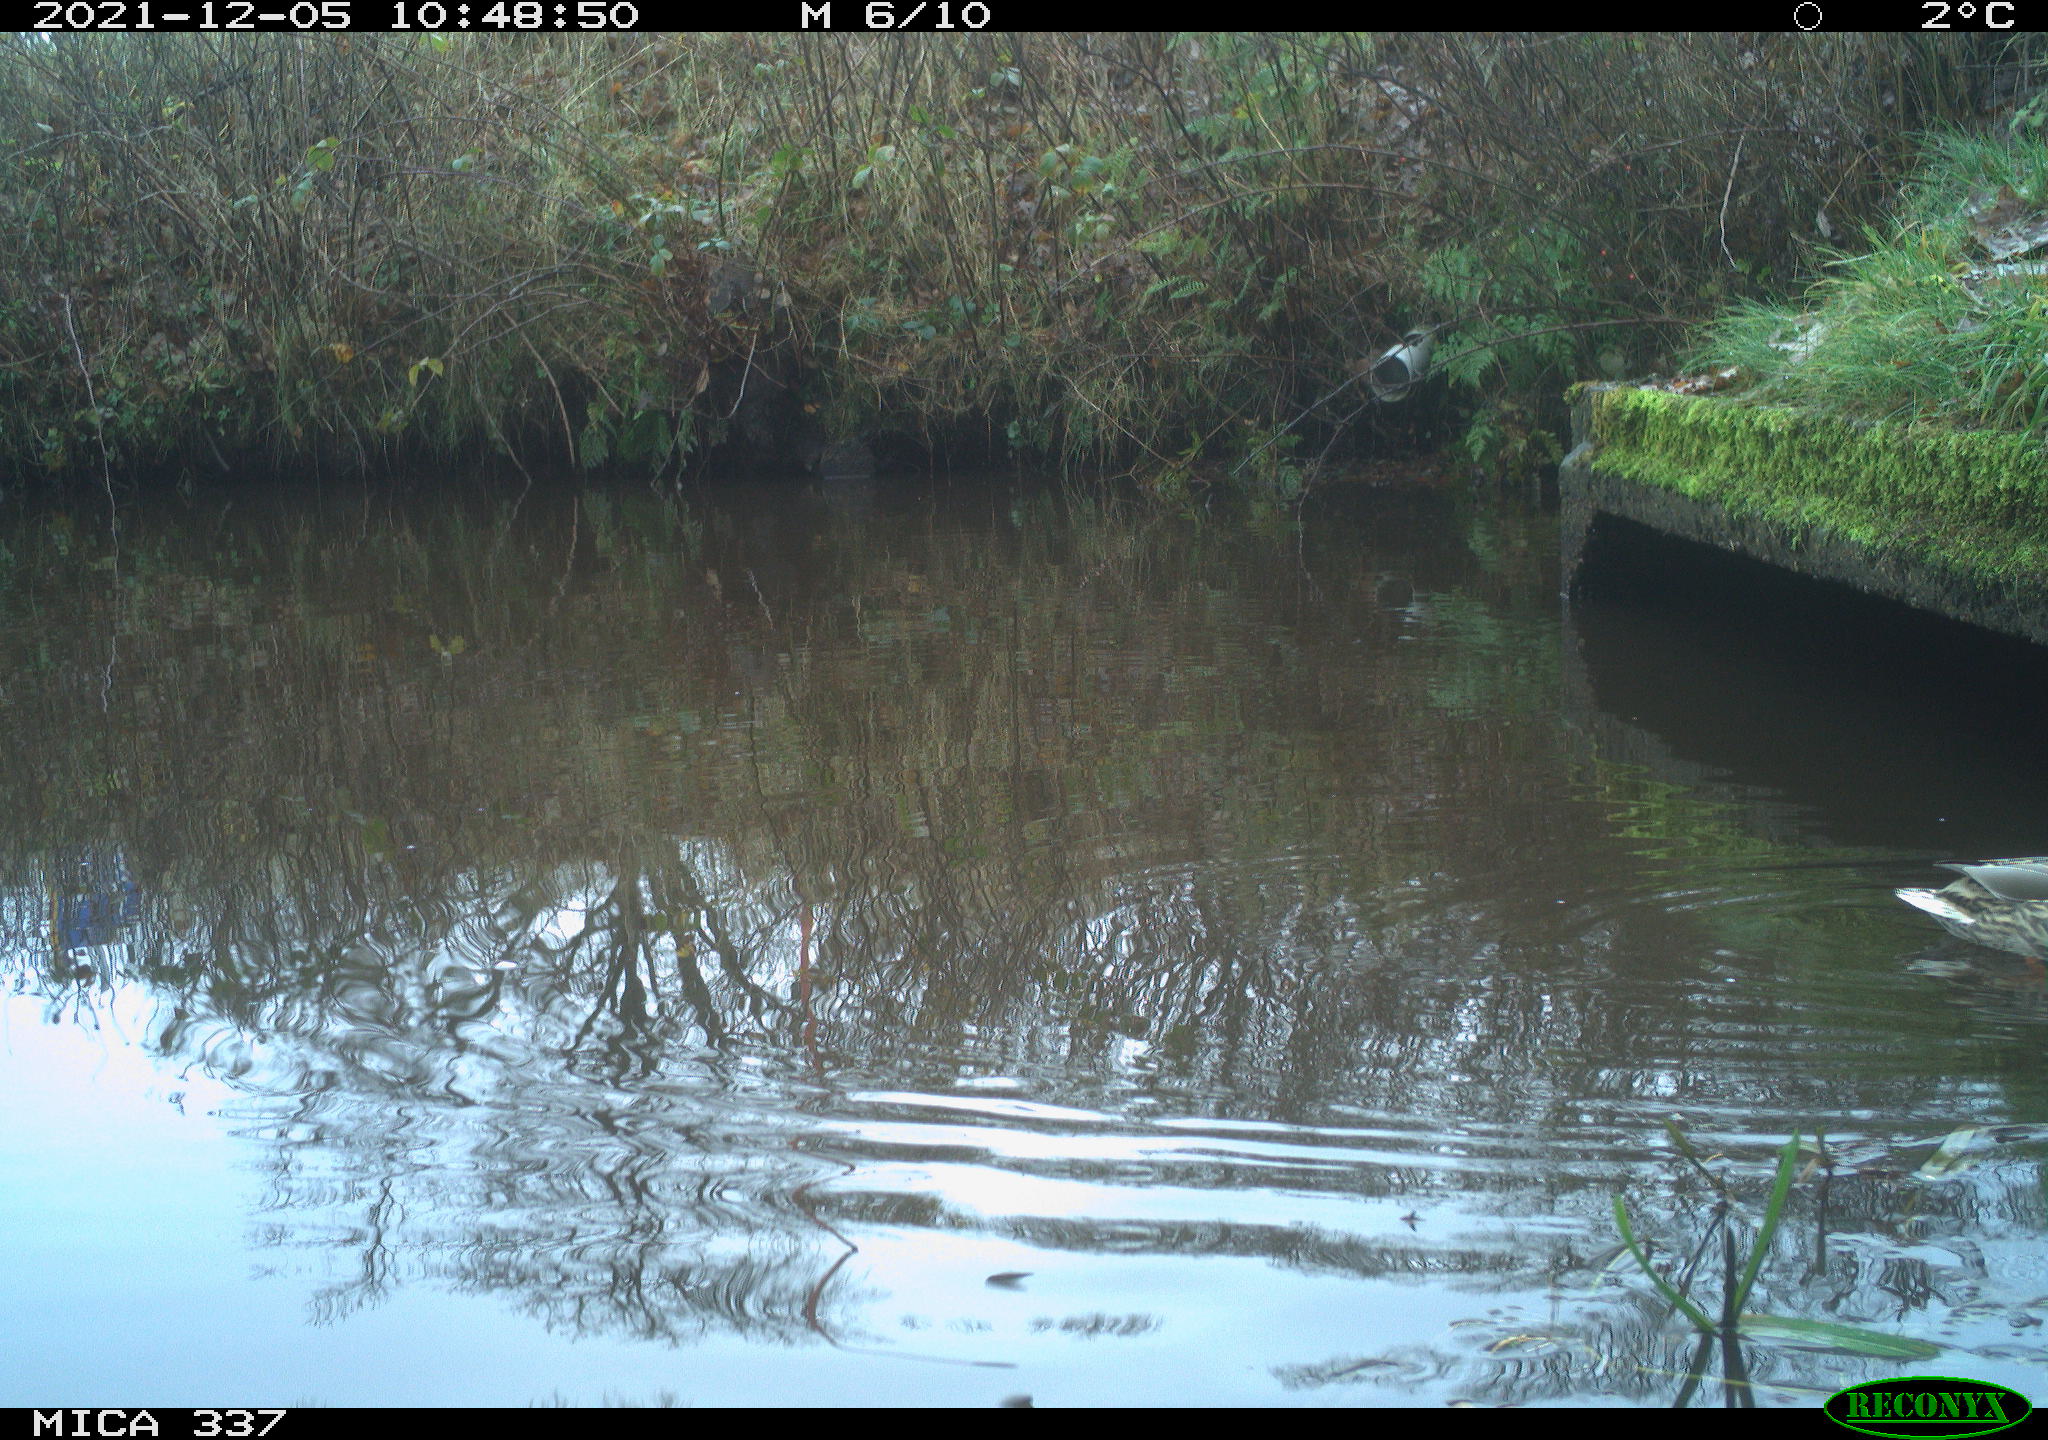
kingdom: Animalia
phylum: Chordata
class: Aves
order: Anseriformes
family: Anatidae
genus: Anas
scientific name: Anas platyrhynchos
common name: Mallard
